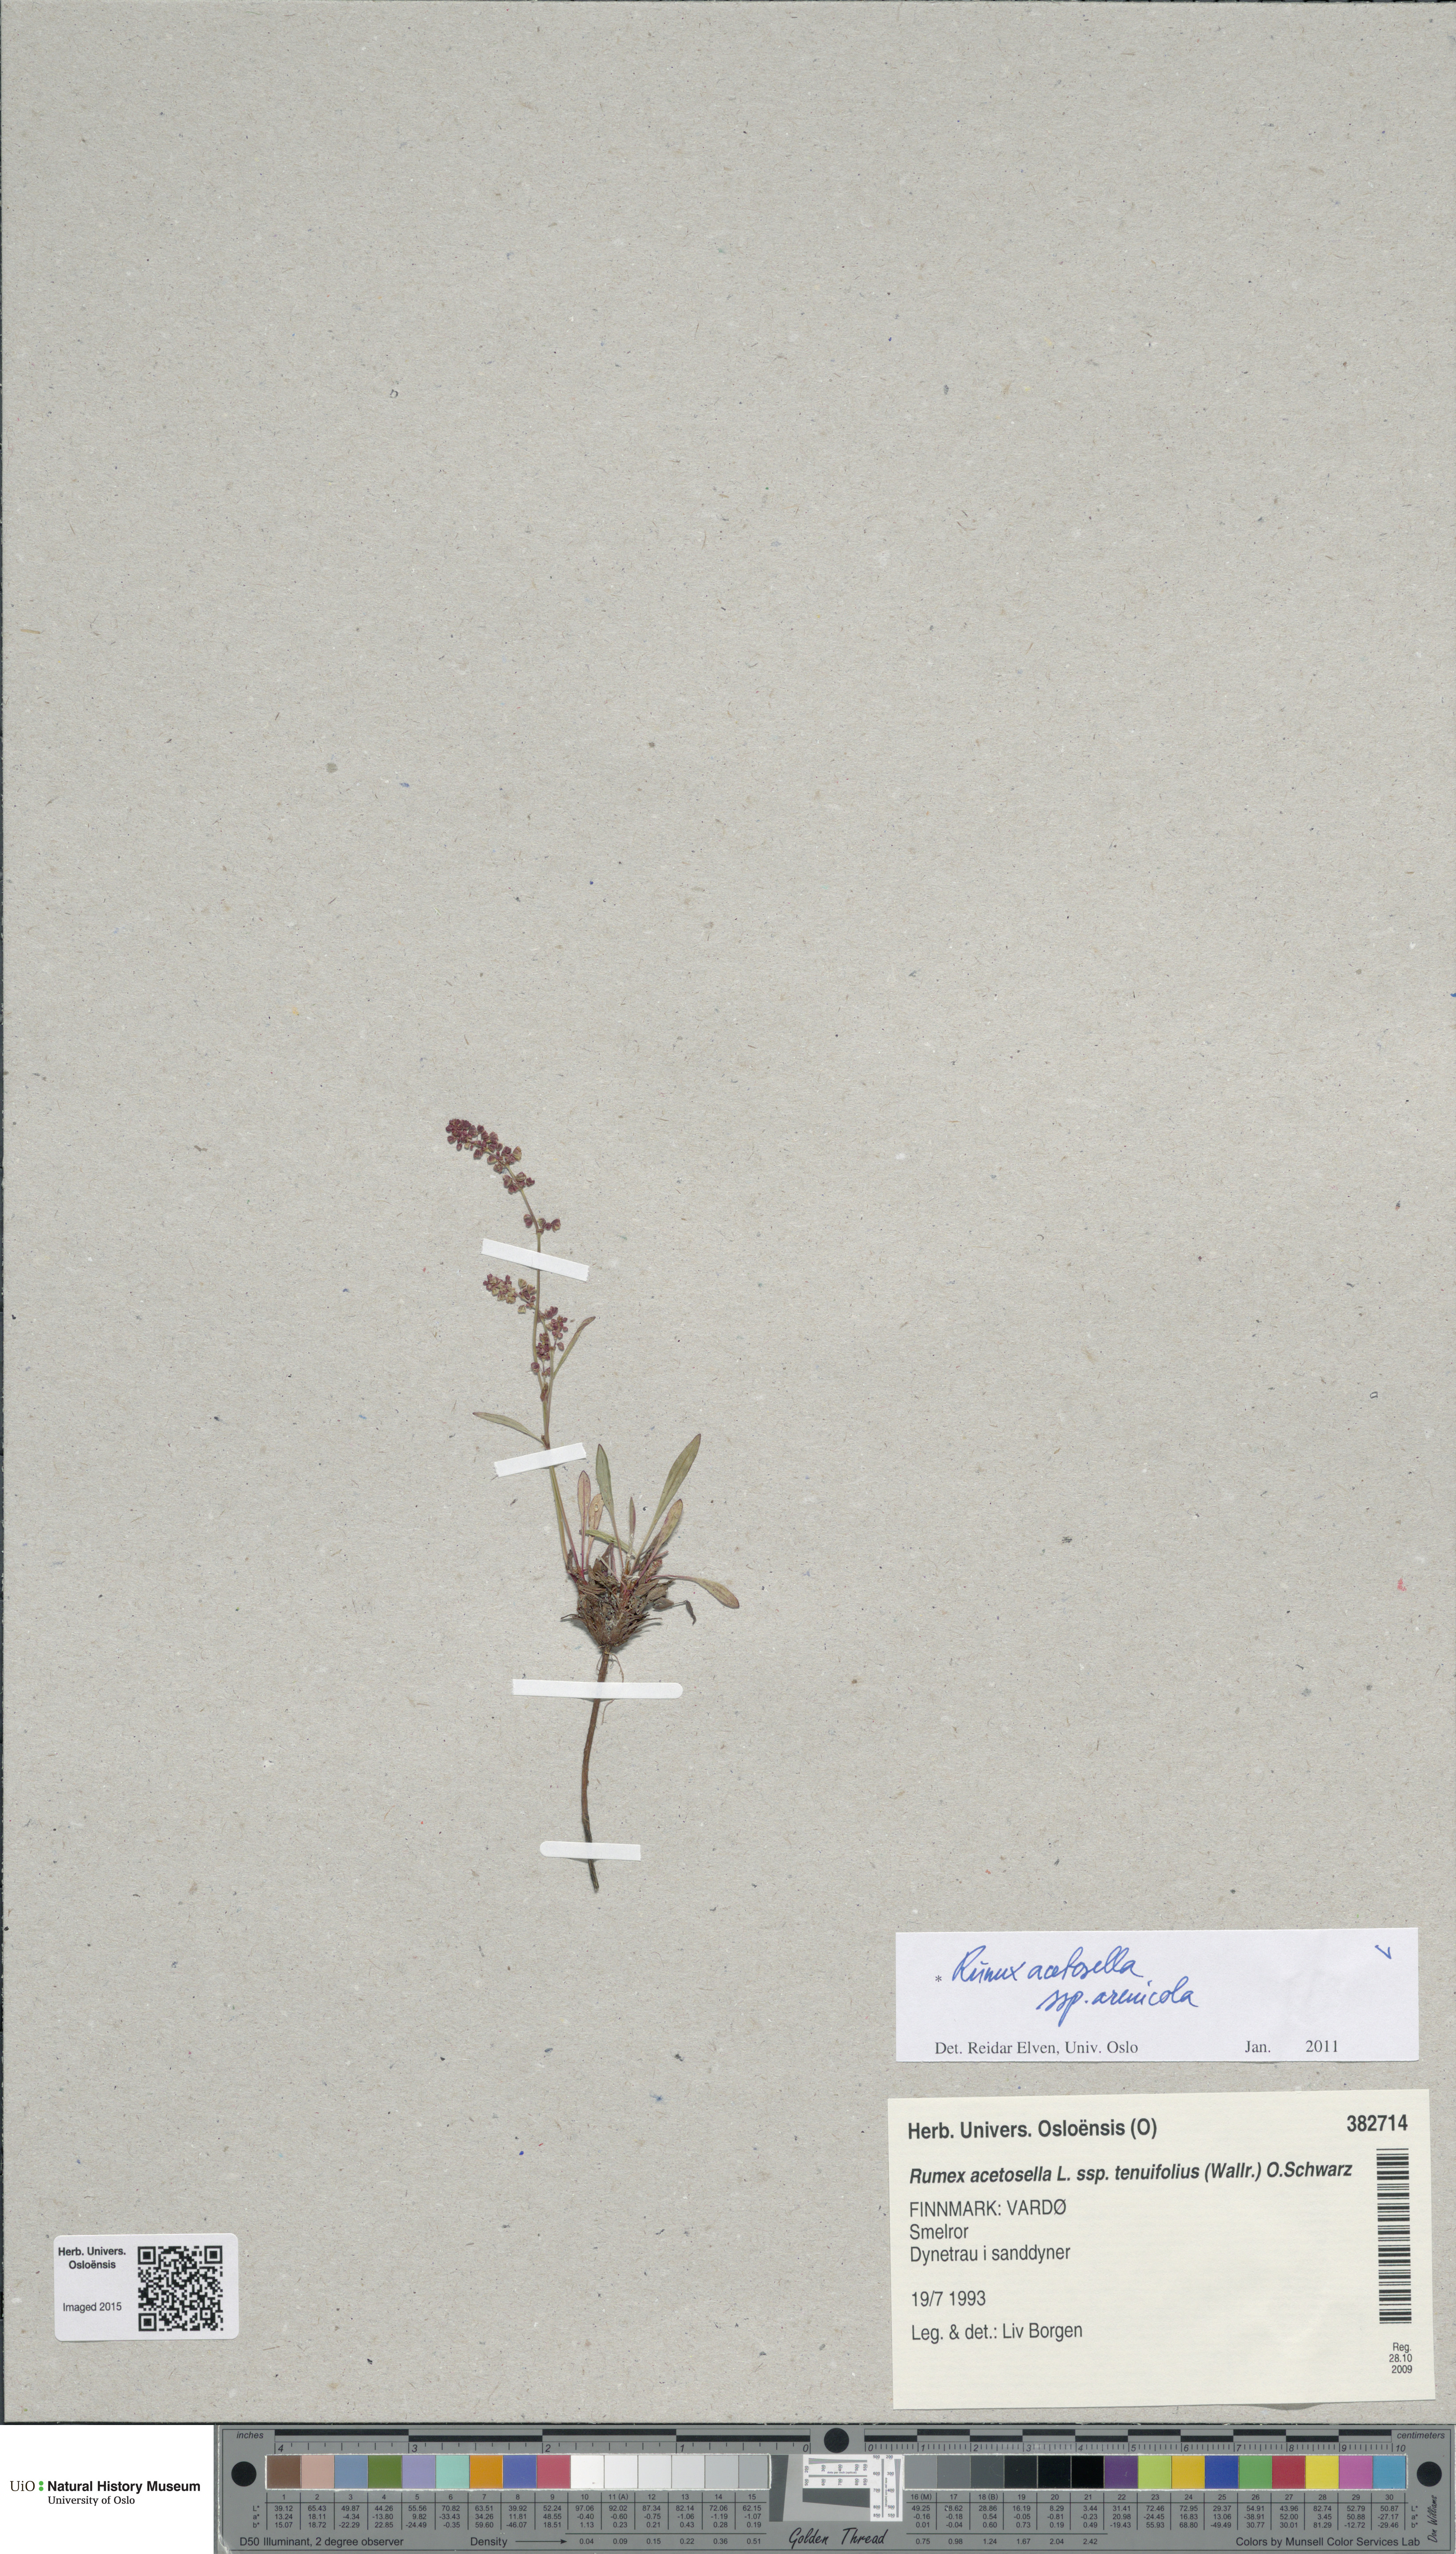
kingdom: Plantae
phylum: Tracheophyta
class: Magnoliopsida
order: Caryophyllales
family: Polygonaceae
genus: Rumex
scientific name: Rumex acetosella
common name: Common sheep sorrel
